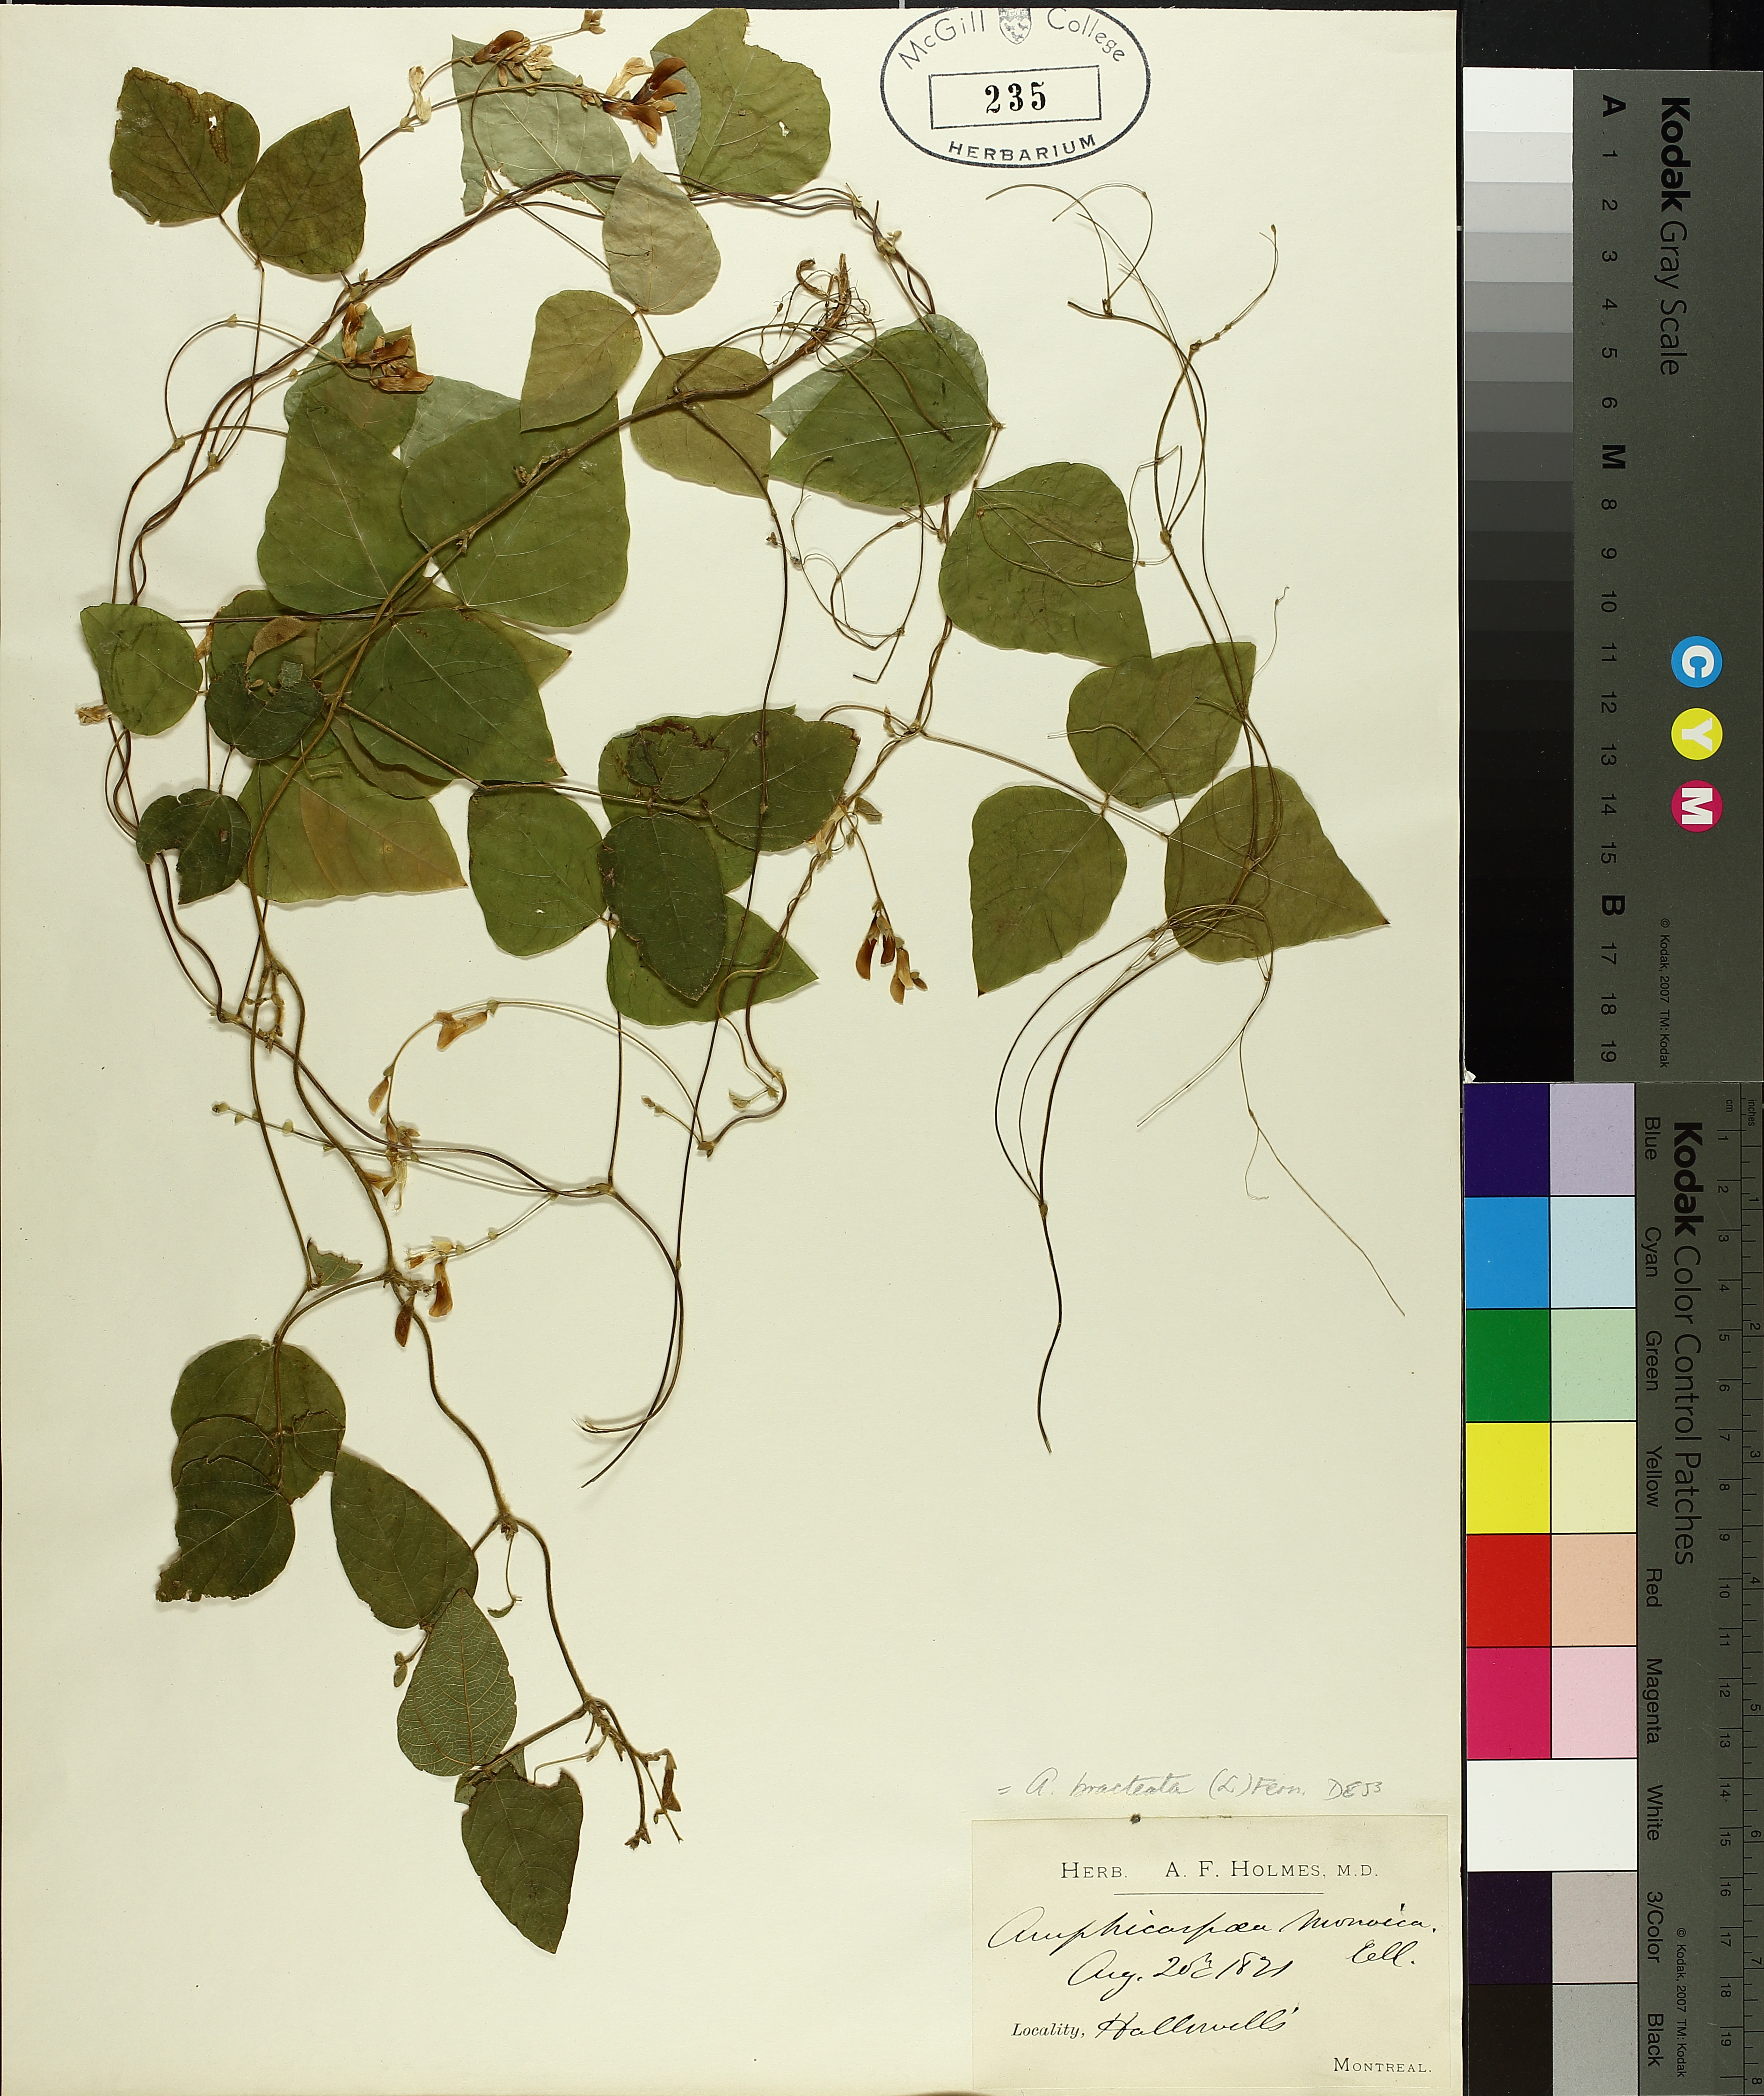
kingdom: Plantae
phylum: Tracheophyta
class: Magnoliopsida
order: Fabales
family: Fabaceae
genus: Amphicarpaea
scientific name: Amphicarpaea bracteata
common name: American hog peanut
